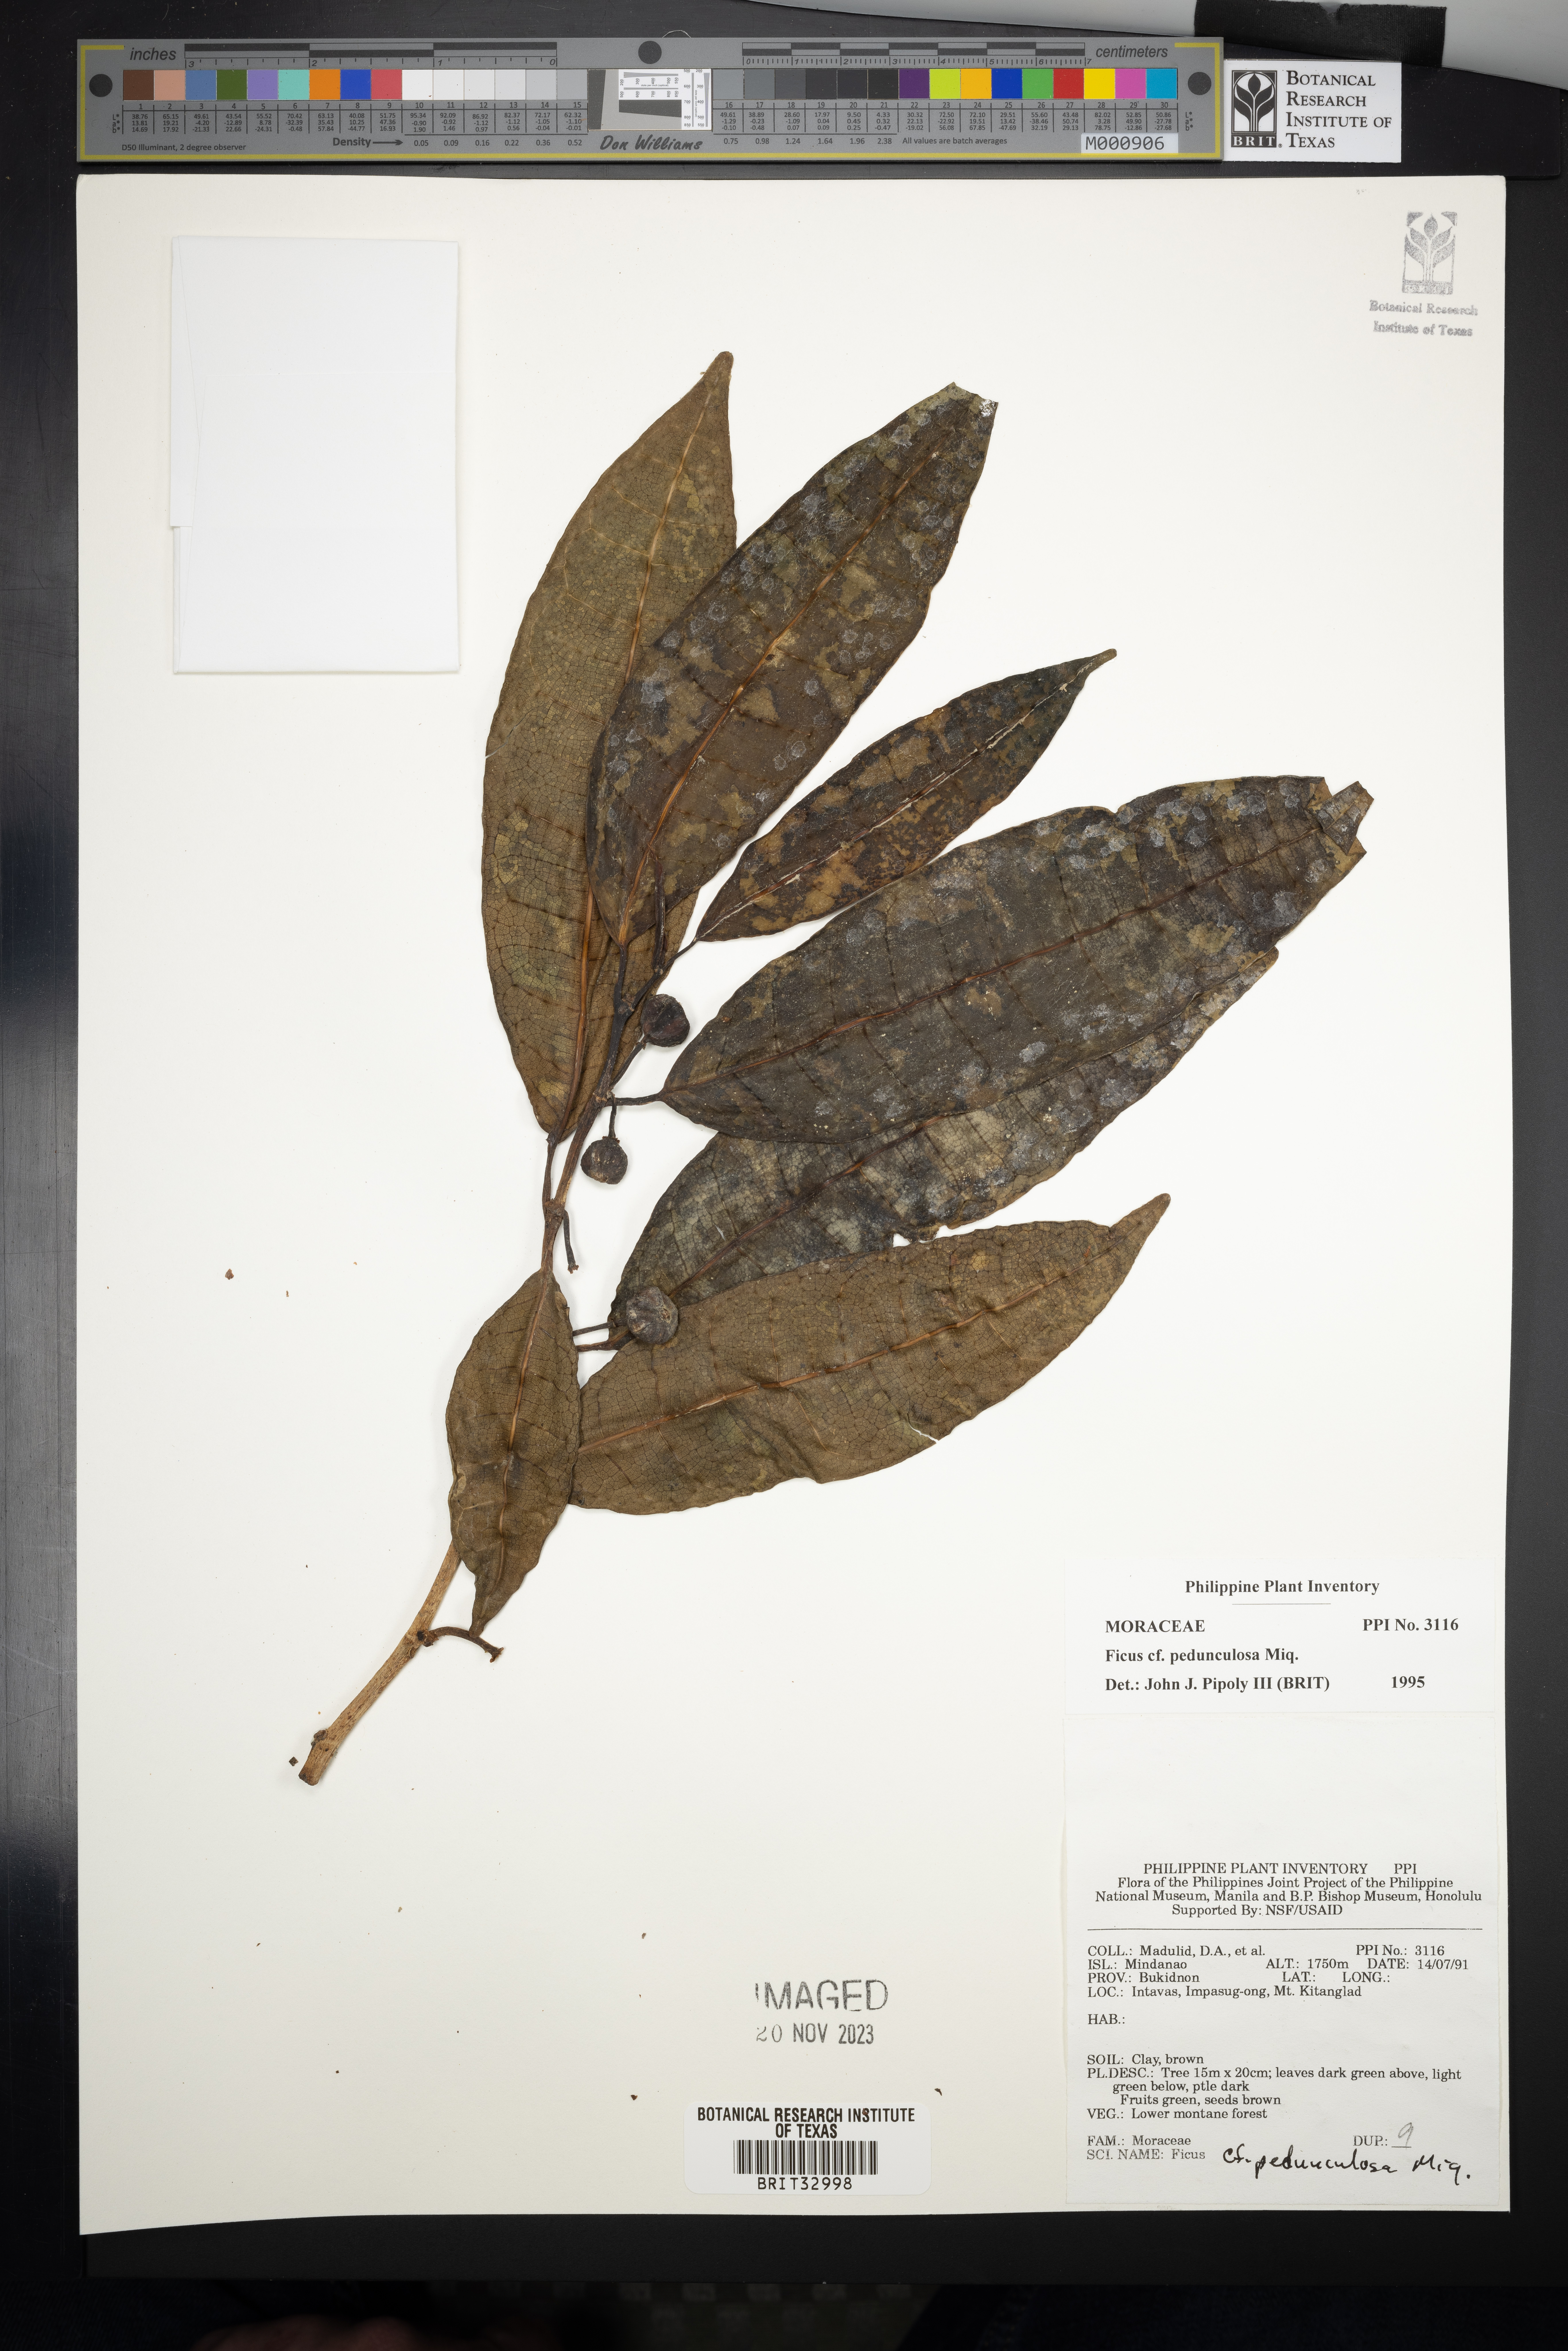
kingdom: Plantae
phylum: Tracheophyta
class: Magnoliopsida
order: Rosales
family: Moraceae
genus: Ficus
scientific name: Ficus pedunculosa
